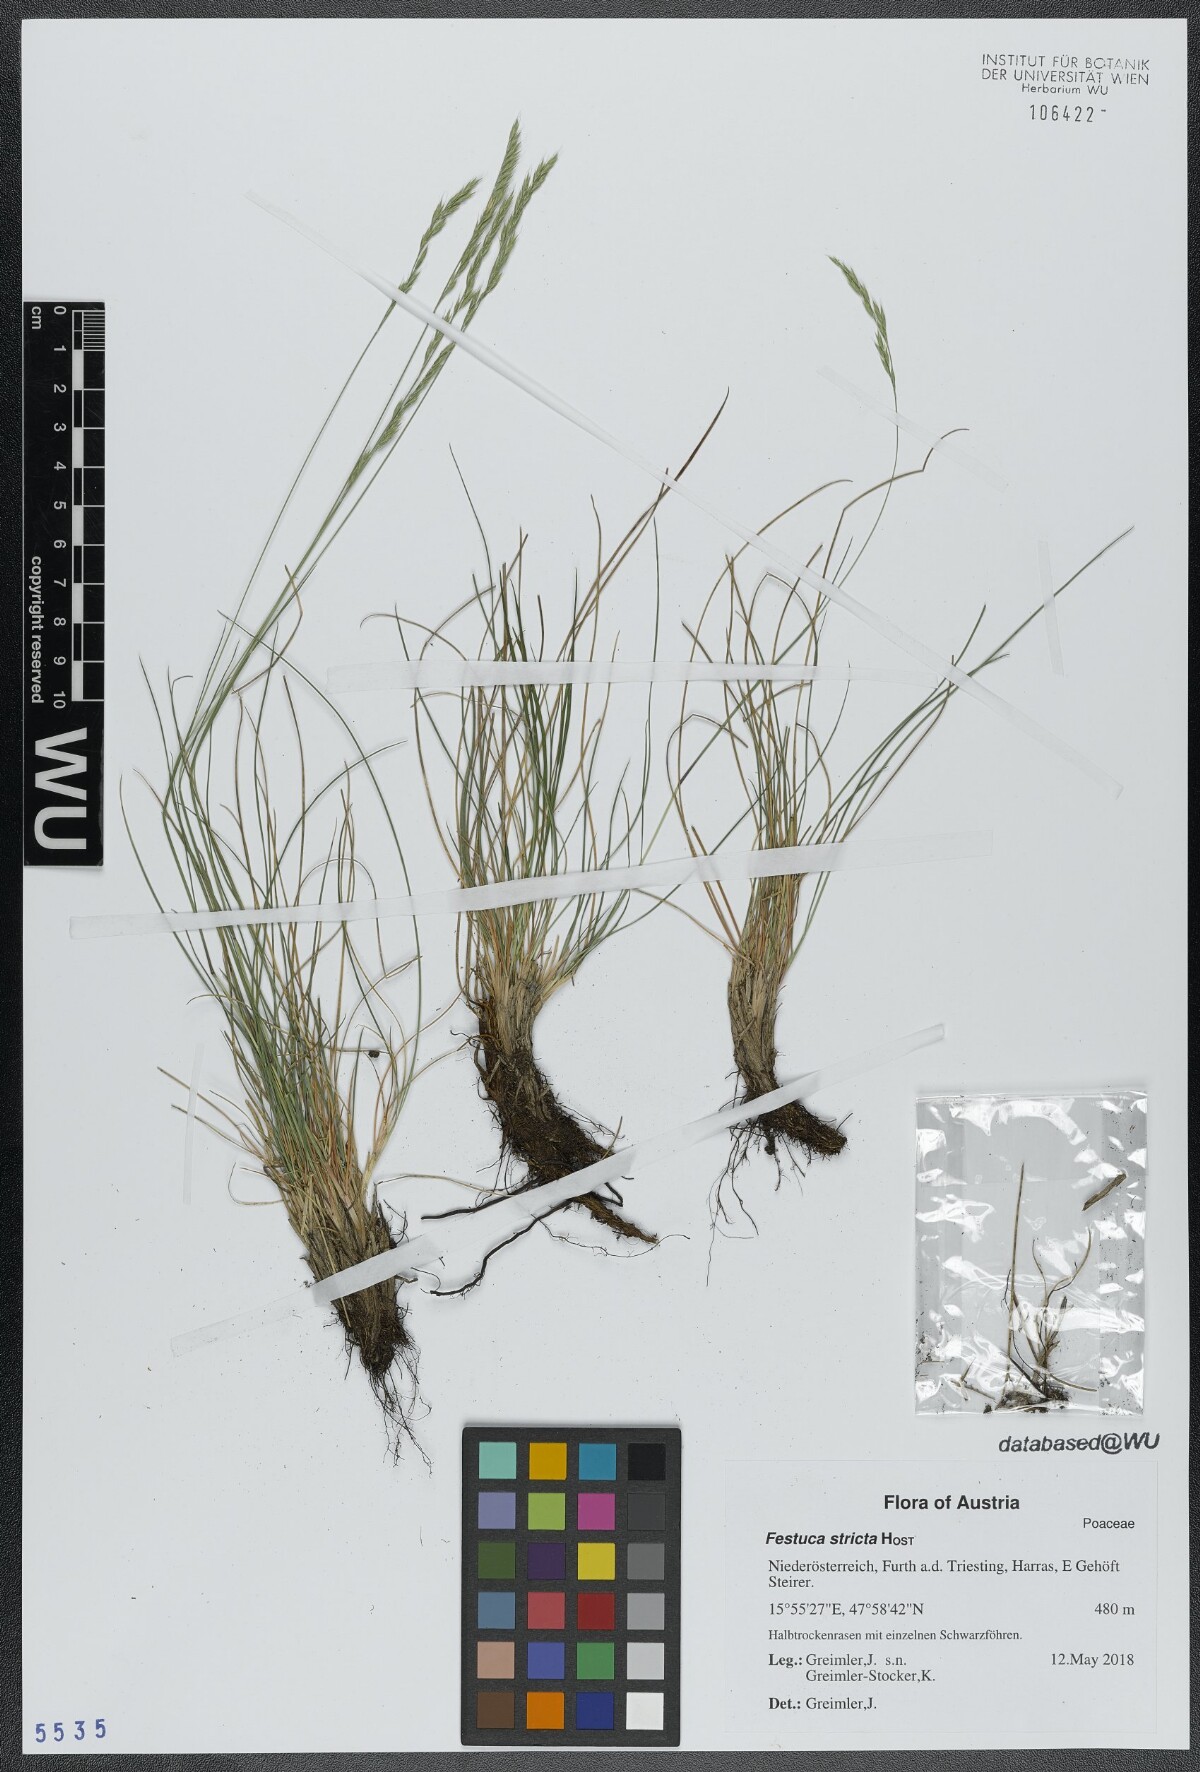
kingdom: Plantae
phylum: Tracheophyta
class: Liliopsida
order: Poales
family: Poaceae
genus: Festuca
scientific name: Festuca stricta
